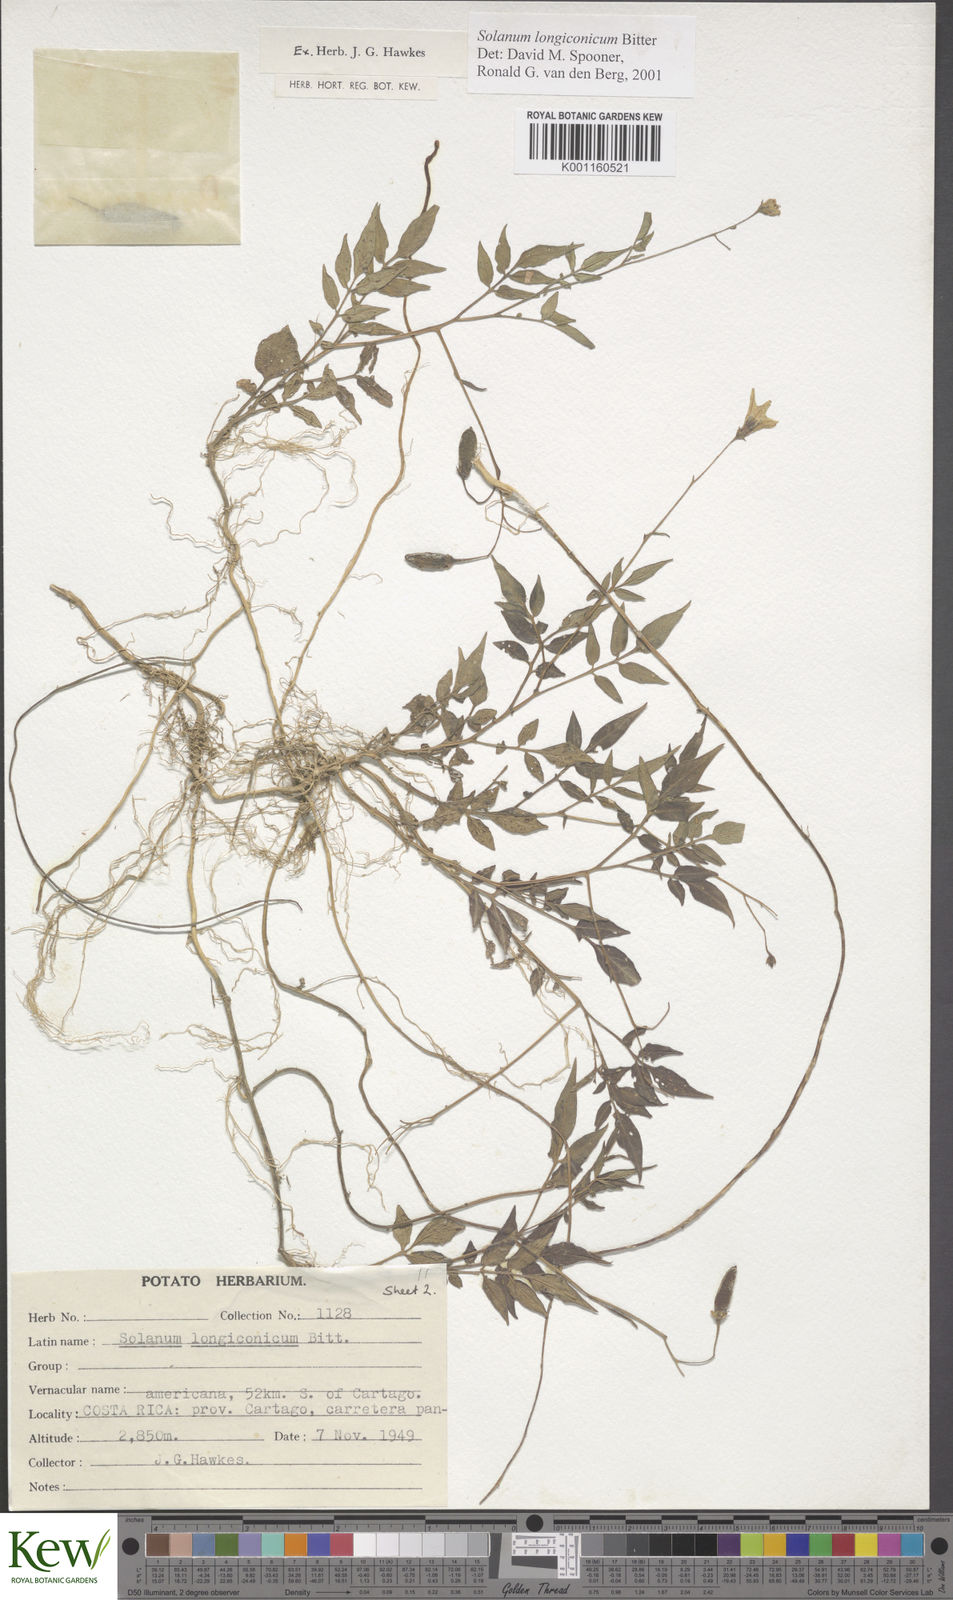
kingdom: Plantae
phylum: Tracheophyta
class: Magnoliopsida
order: Solanales
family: Solanaceae
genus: Solanum
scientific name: Solanum longiconicum
